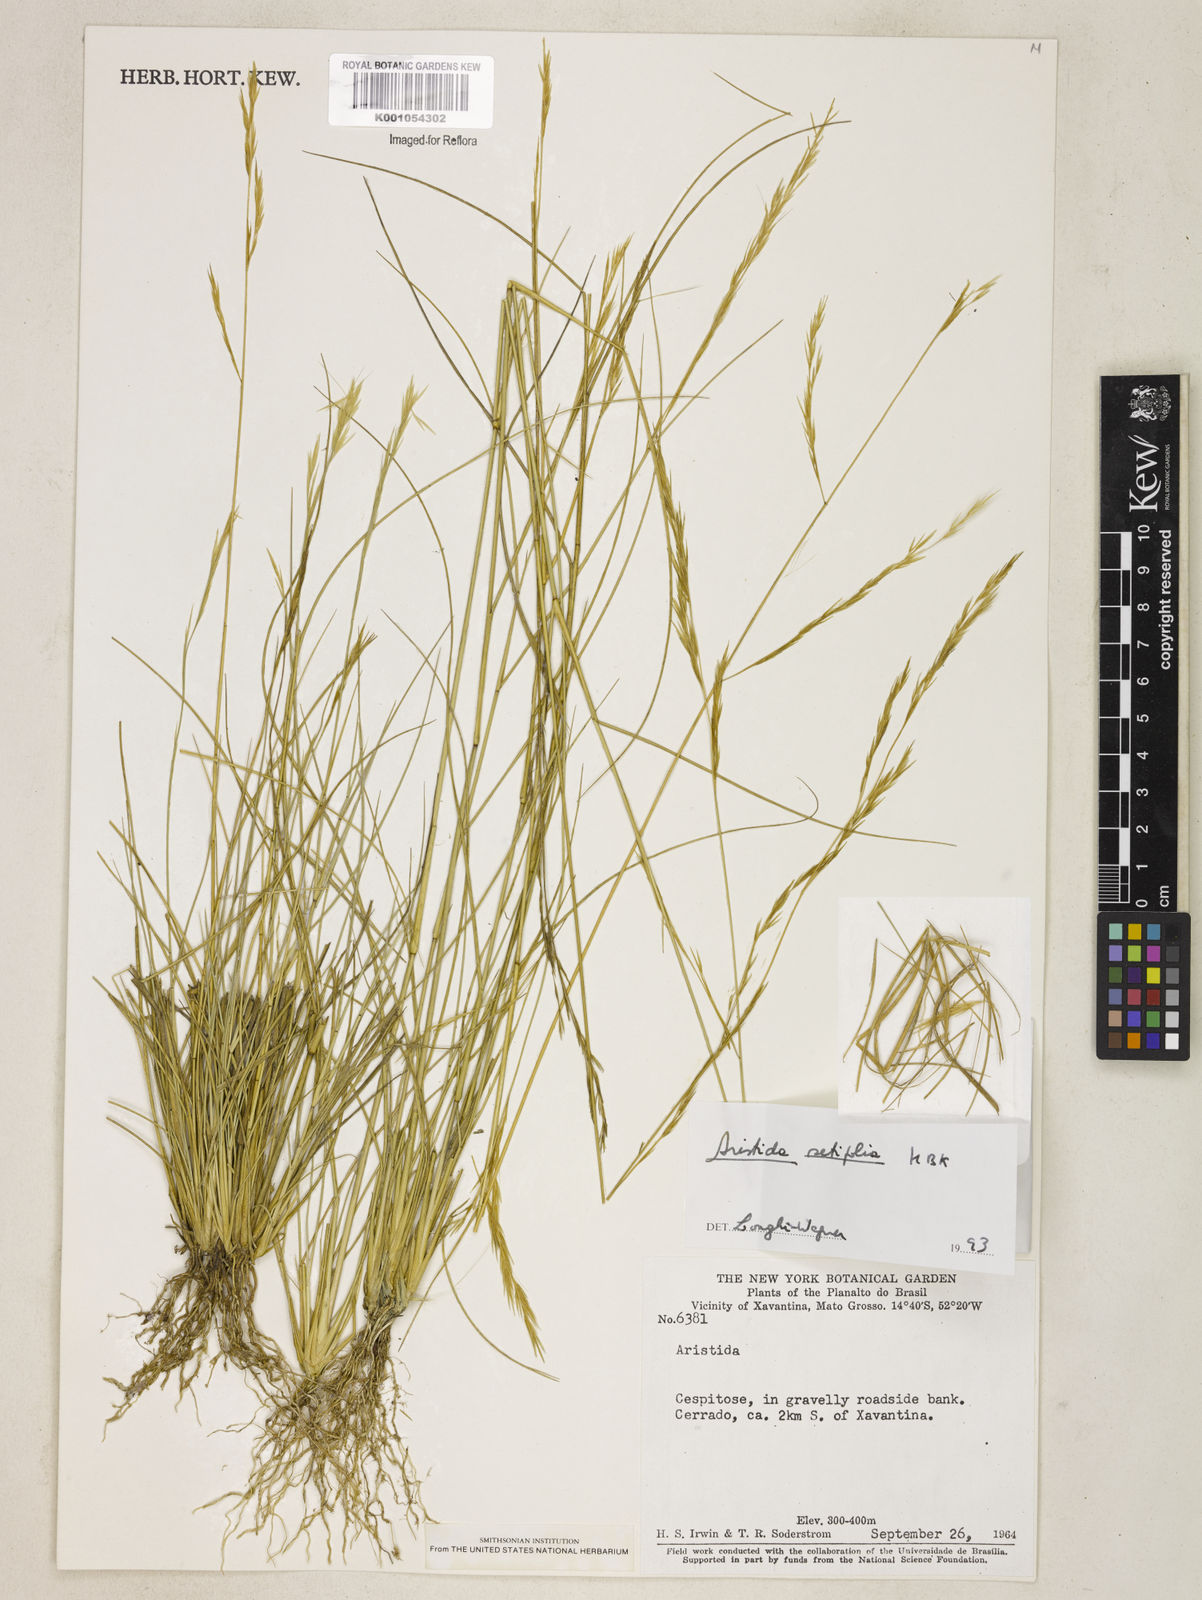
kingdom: Plantae
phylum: Tracheophyta
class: Liliopsida
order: Poales
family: Poaceae
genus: Aristida
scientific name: Aristida setifolia
